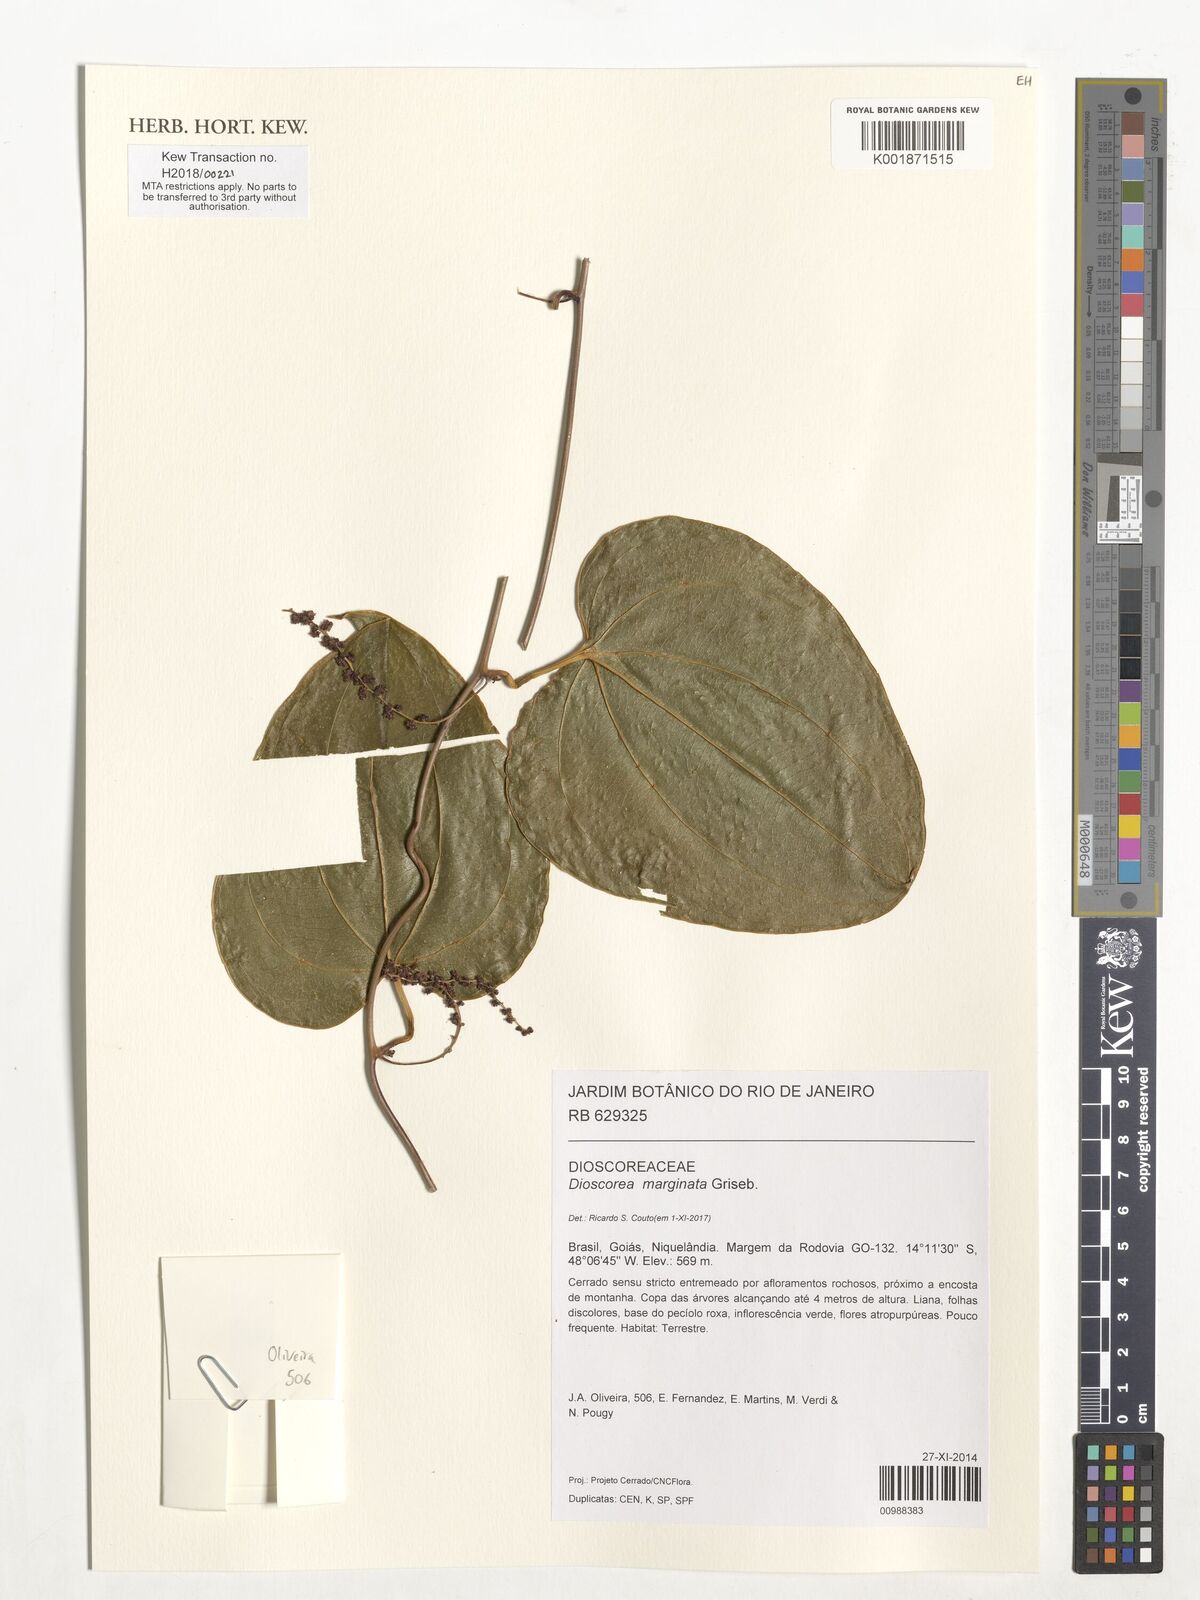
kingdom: Plantae
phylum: Tracheophyta
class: Liliopsida
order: Dioscoreales
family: Dioscoreaceae
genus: Dioscorea
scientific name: Dioscorea marginata
